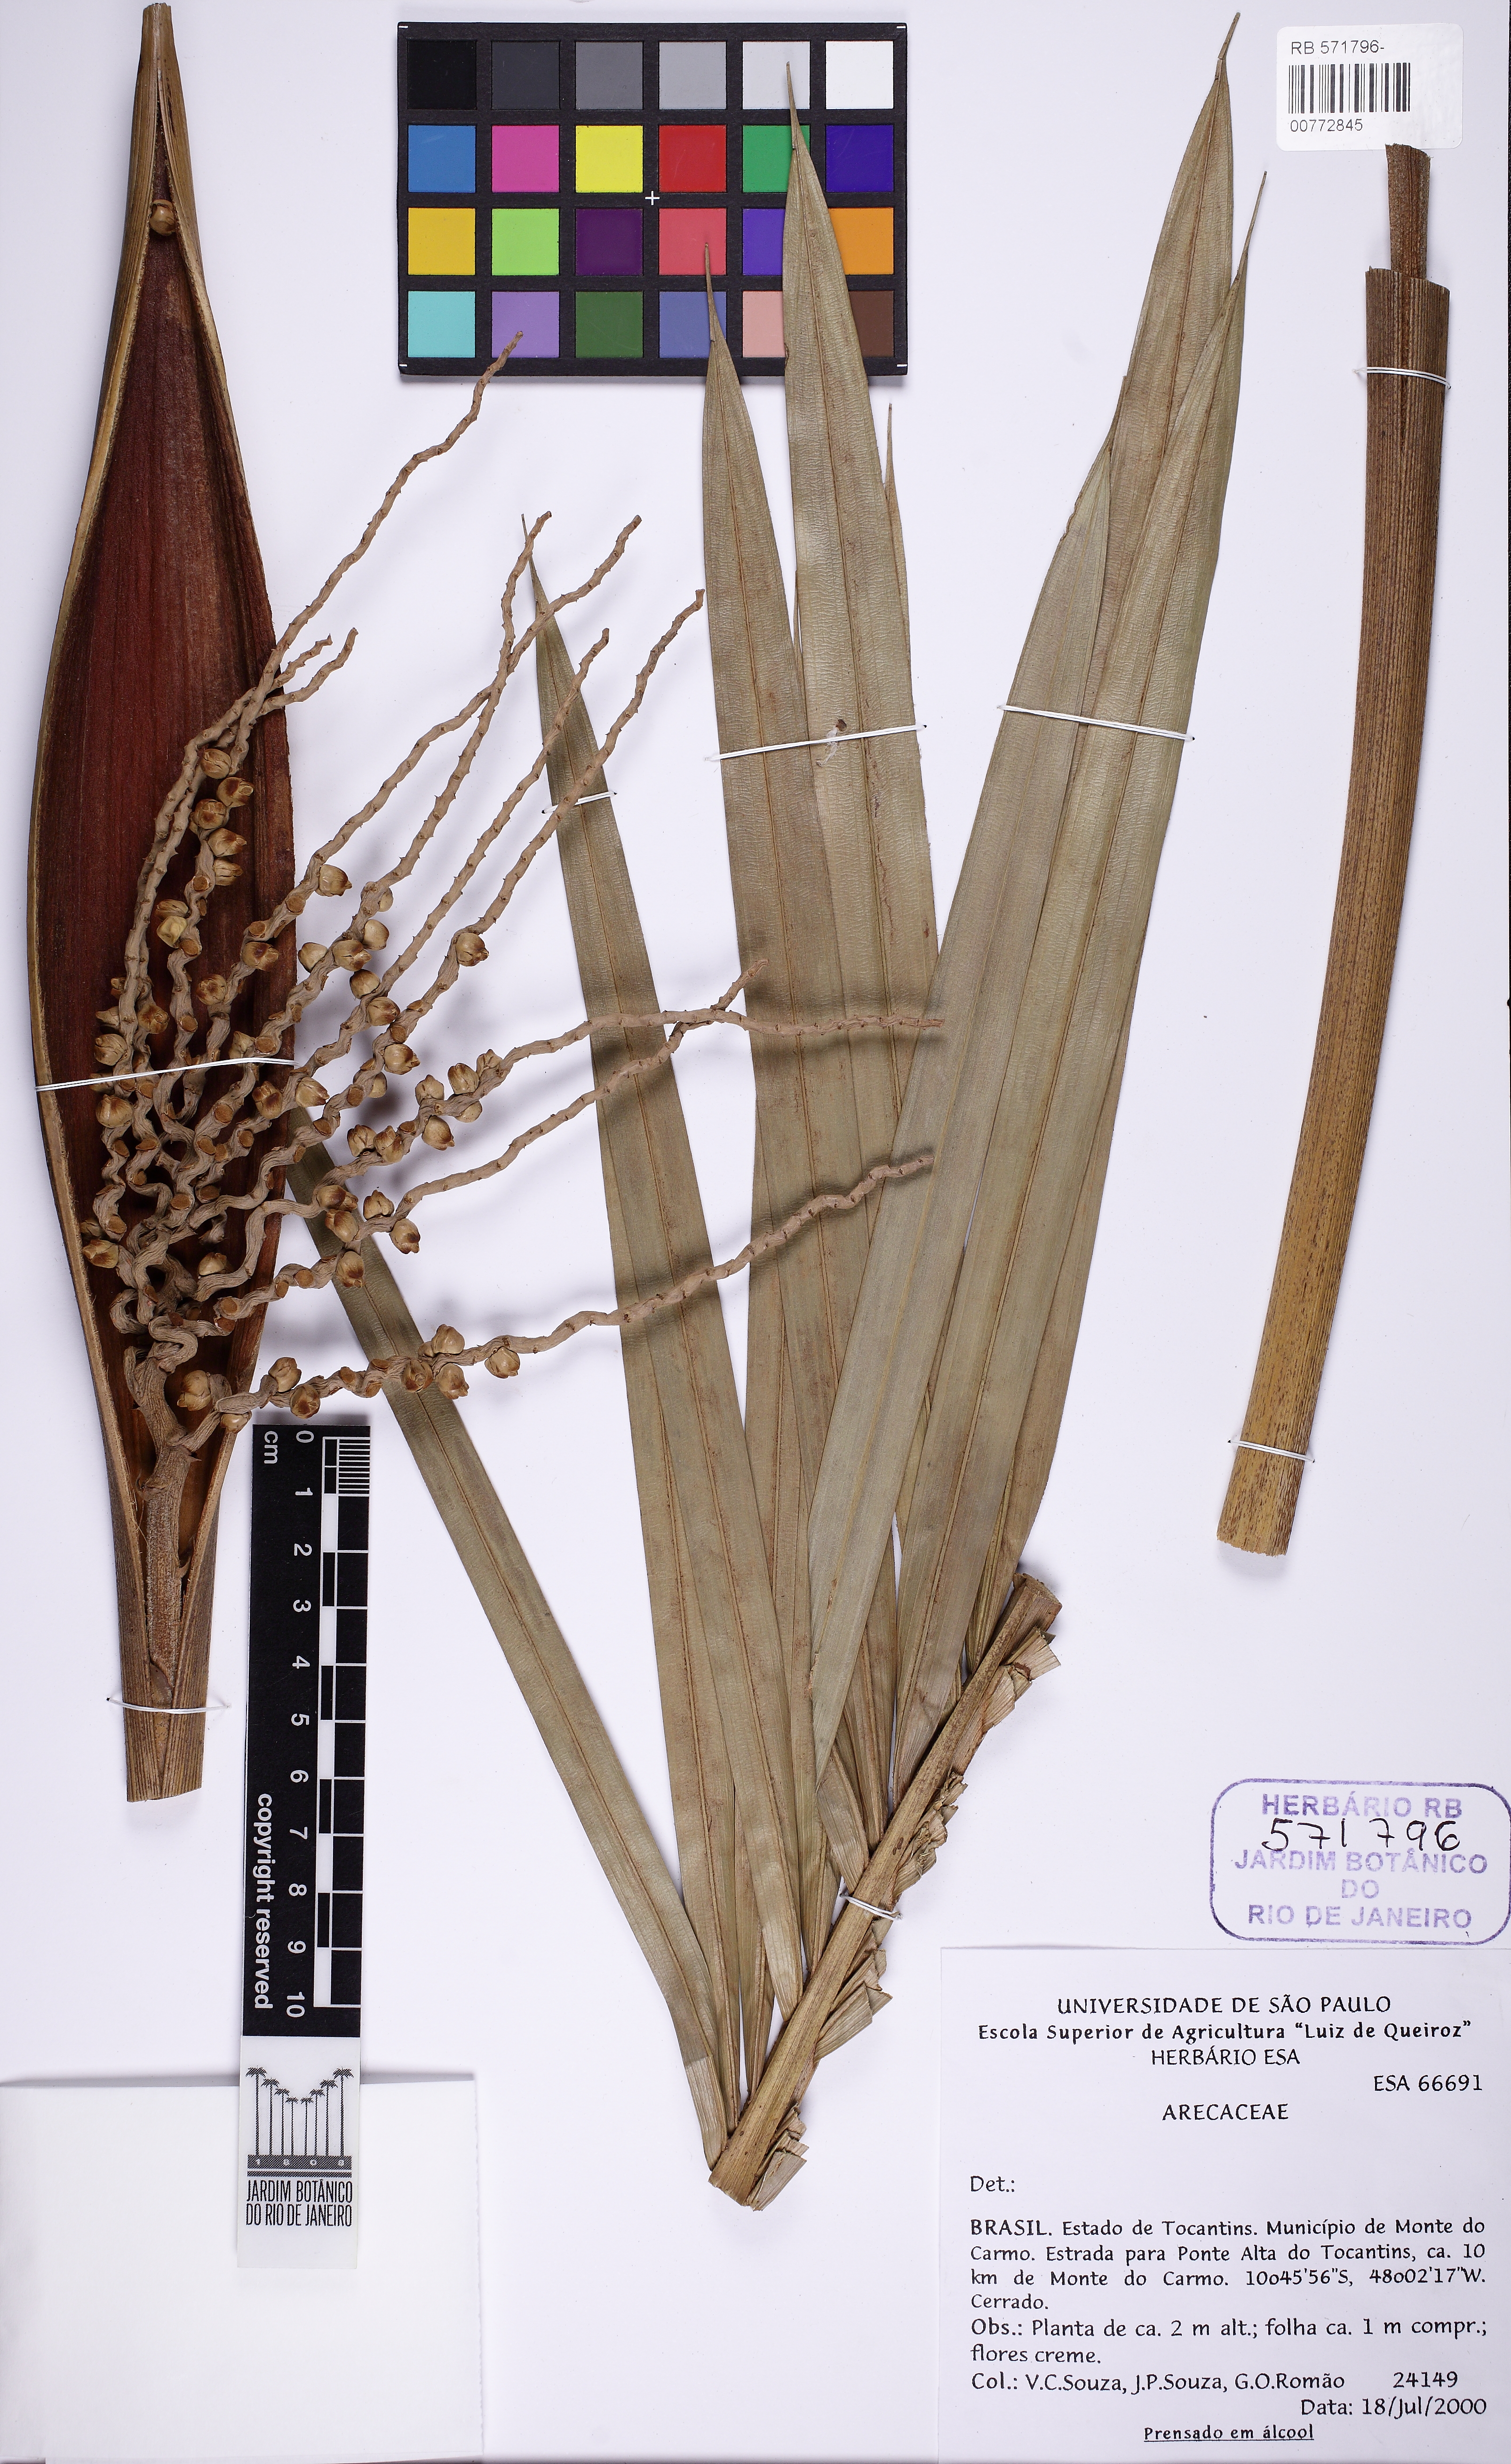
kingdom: Plantae
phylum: Tracheophyta
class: Liliopsida
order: Arecales
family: Arecaceae
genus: Syagrus
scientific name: Syagrus comosa
